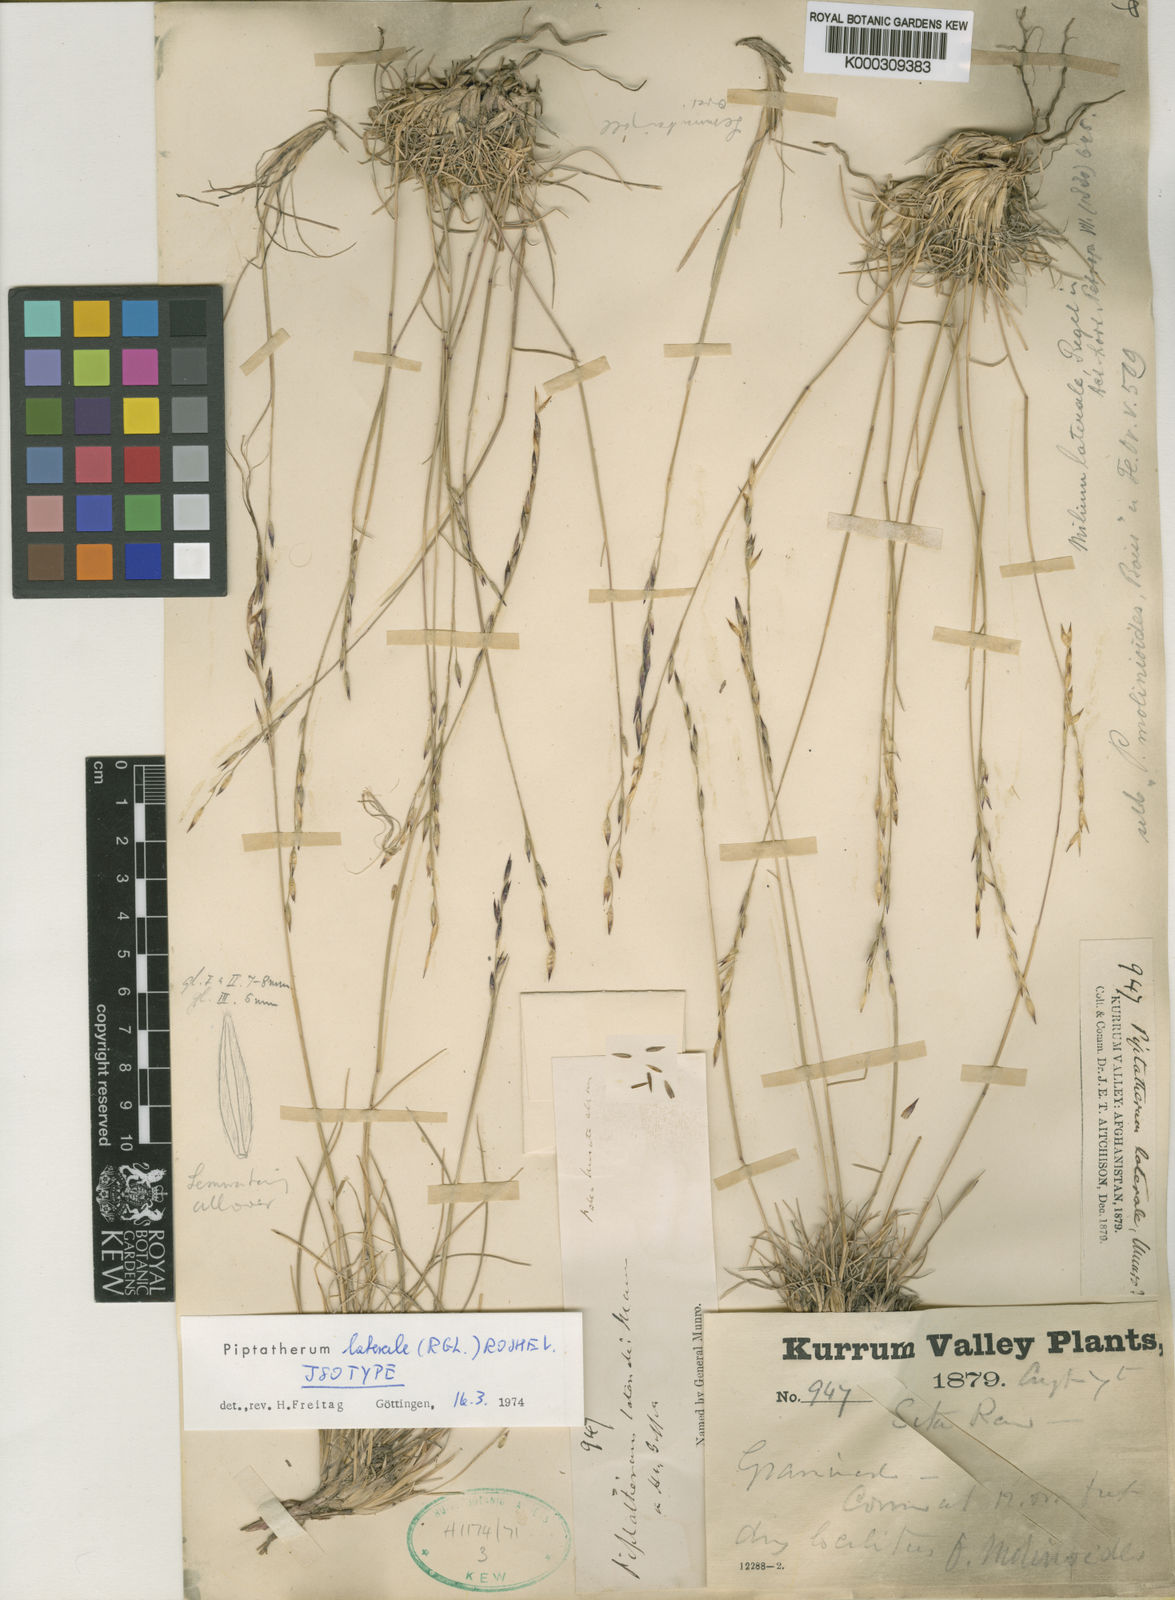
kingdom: Plantae
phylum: Tracheophyta
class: Liliopsida
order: Poales
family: Poaceae
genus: Piptatherum
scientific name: Piptatherum
